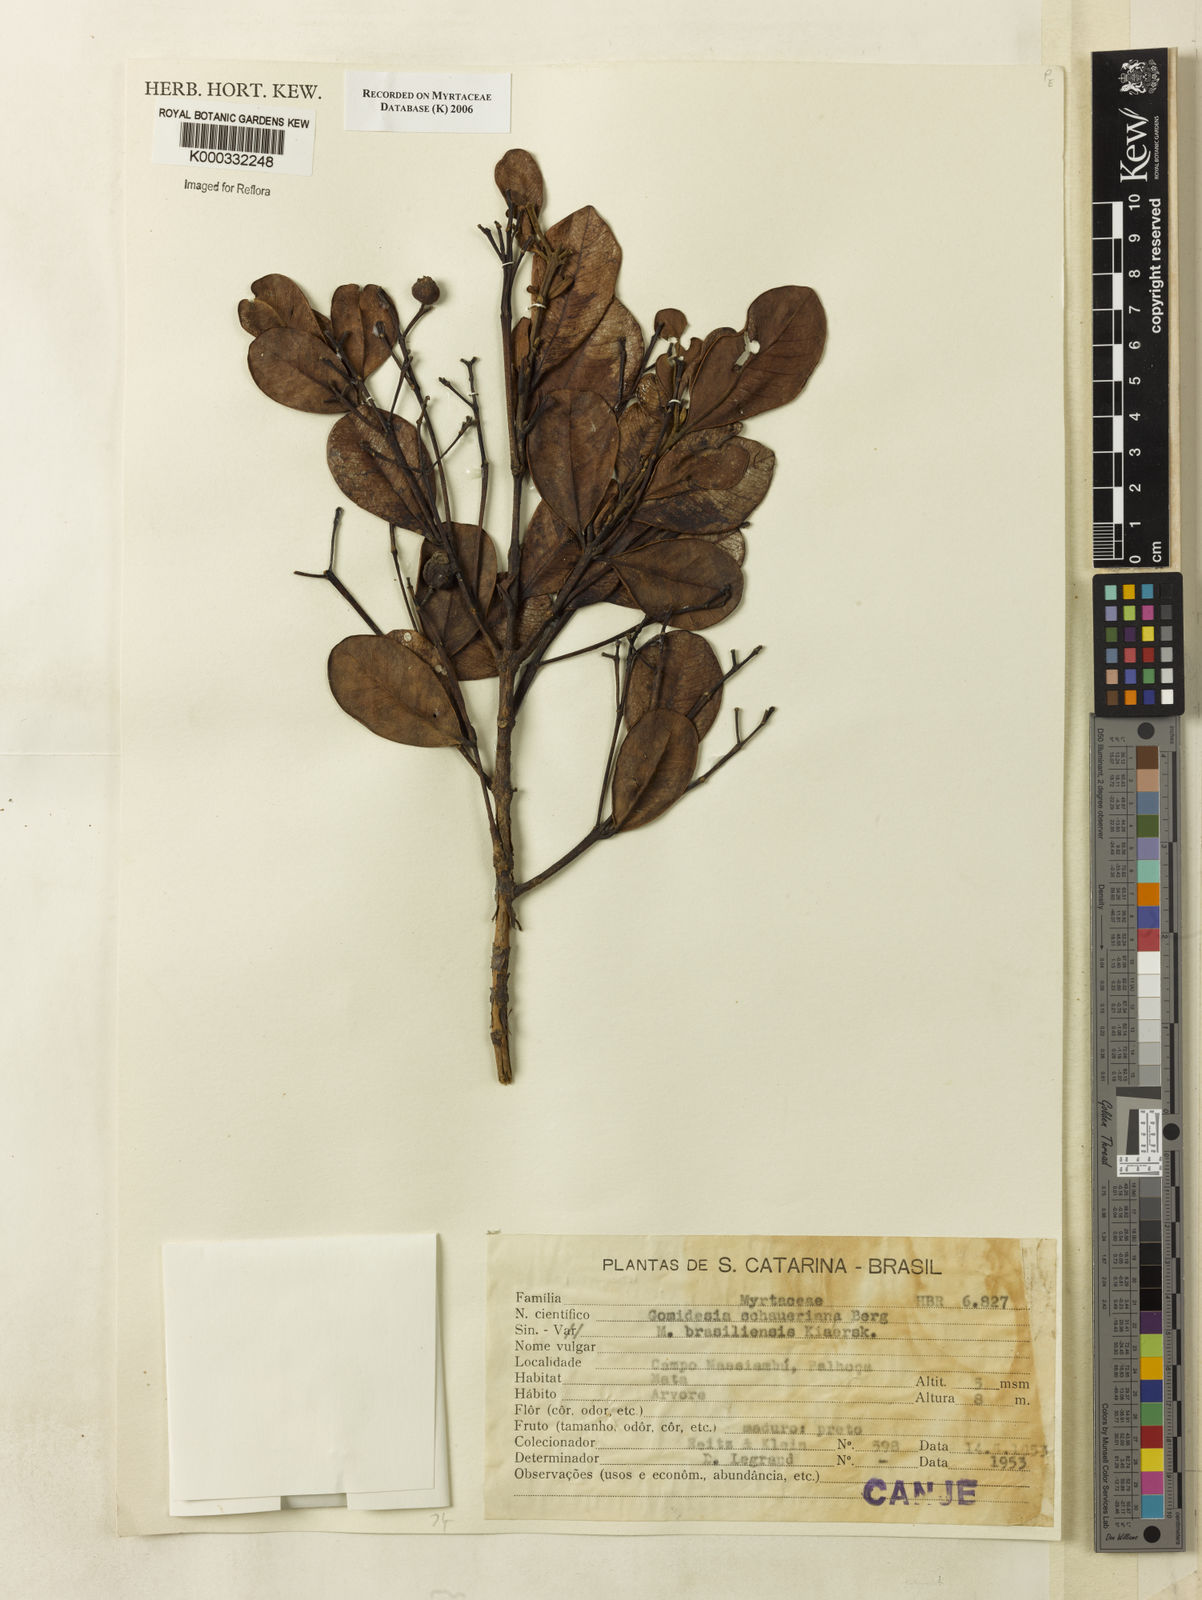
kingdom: Plantae
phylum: Tracheophyta
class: Magnoliopsida
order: Myrtales
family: Myrtaceae
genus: Myrcia
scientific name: Myrcia freyreissiana
